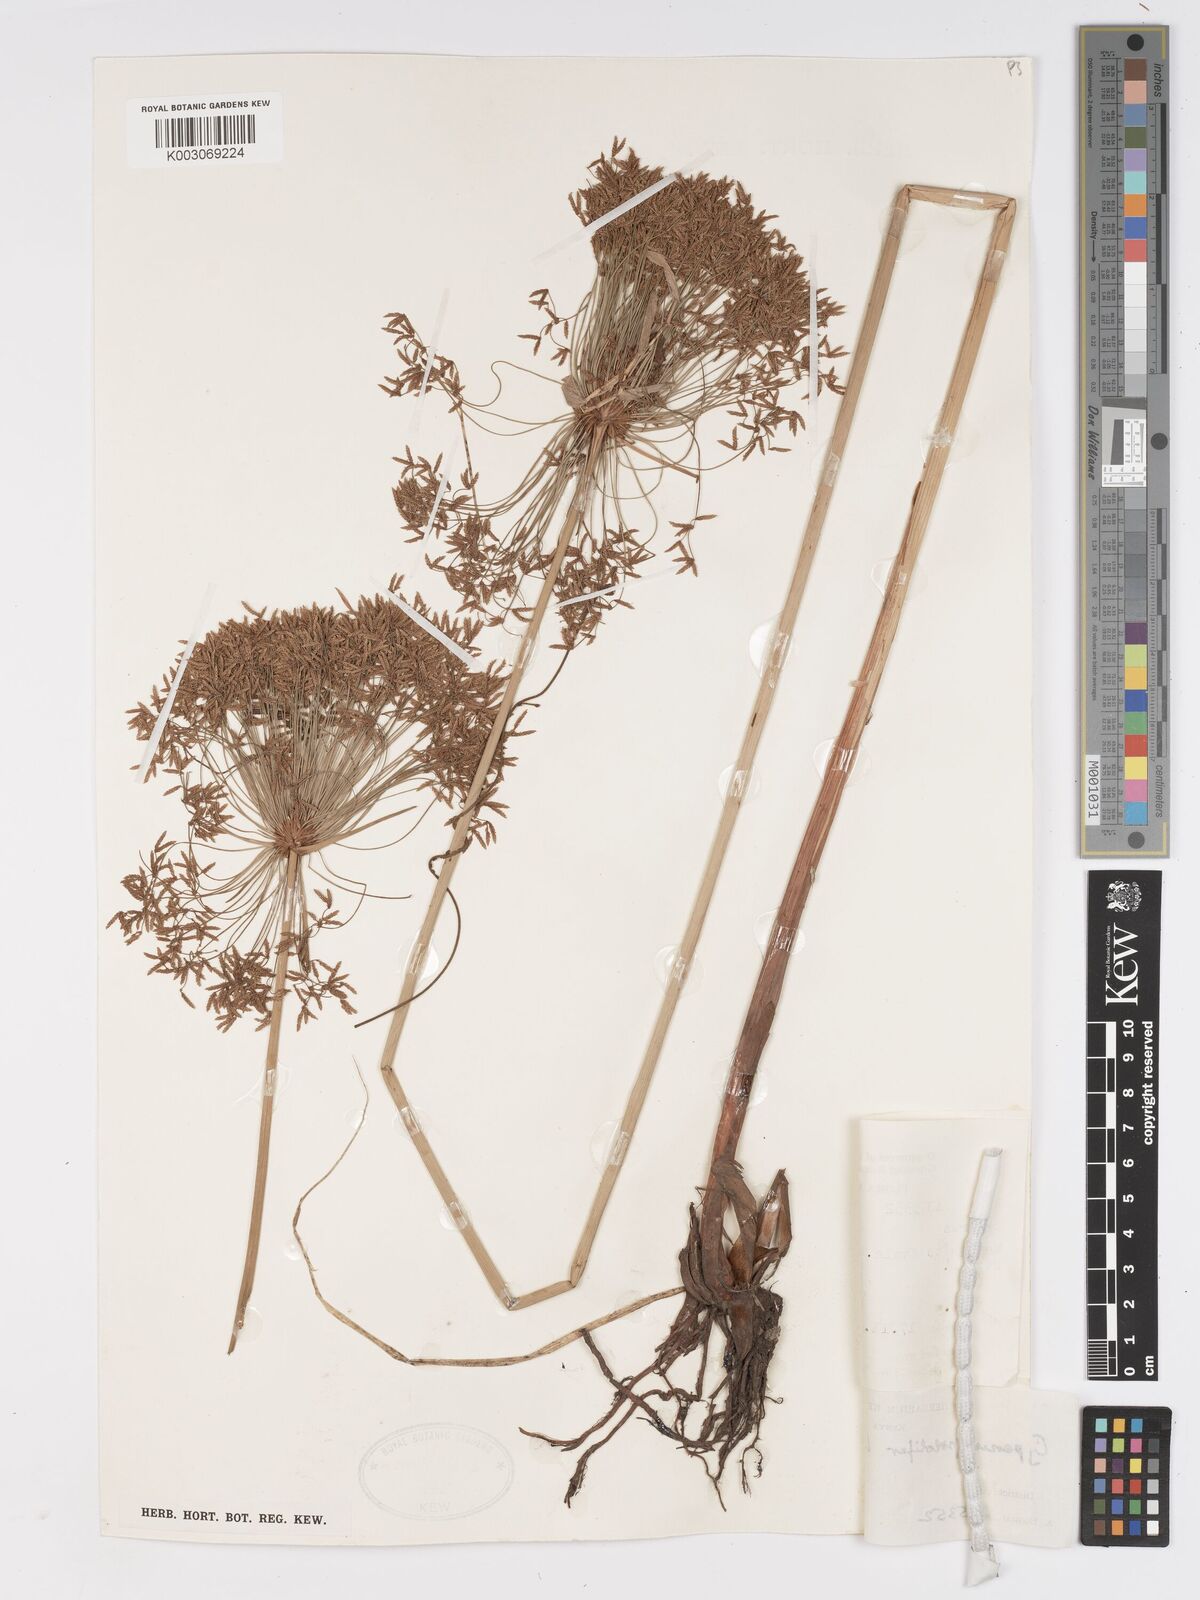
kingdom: Plantae
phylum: Tracheophyta
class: Liliopsida
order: Poales
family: Cyperaceae
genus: Cyperus
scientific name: Cyperus prolifer
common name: Miniature flatsedge
